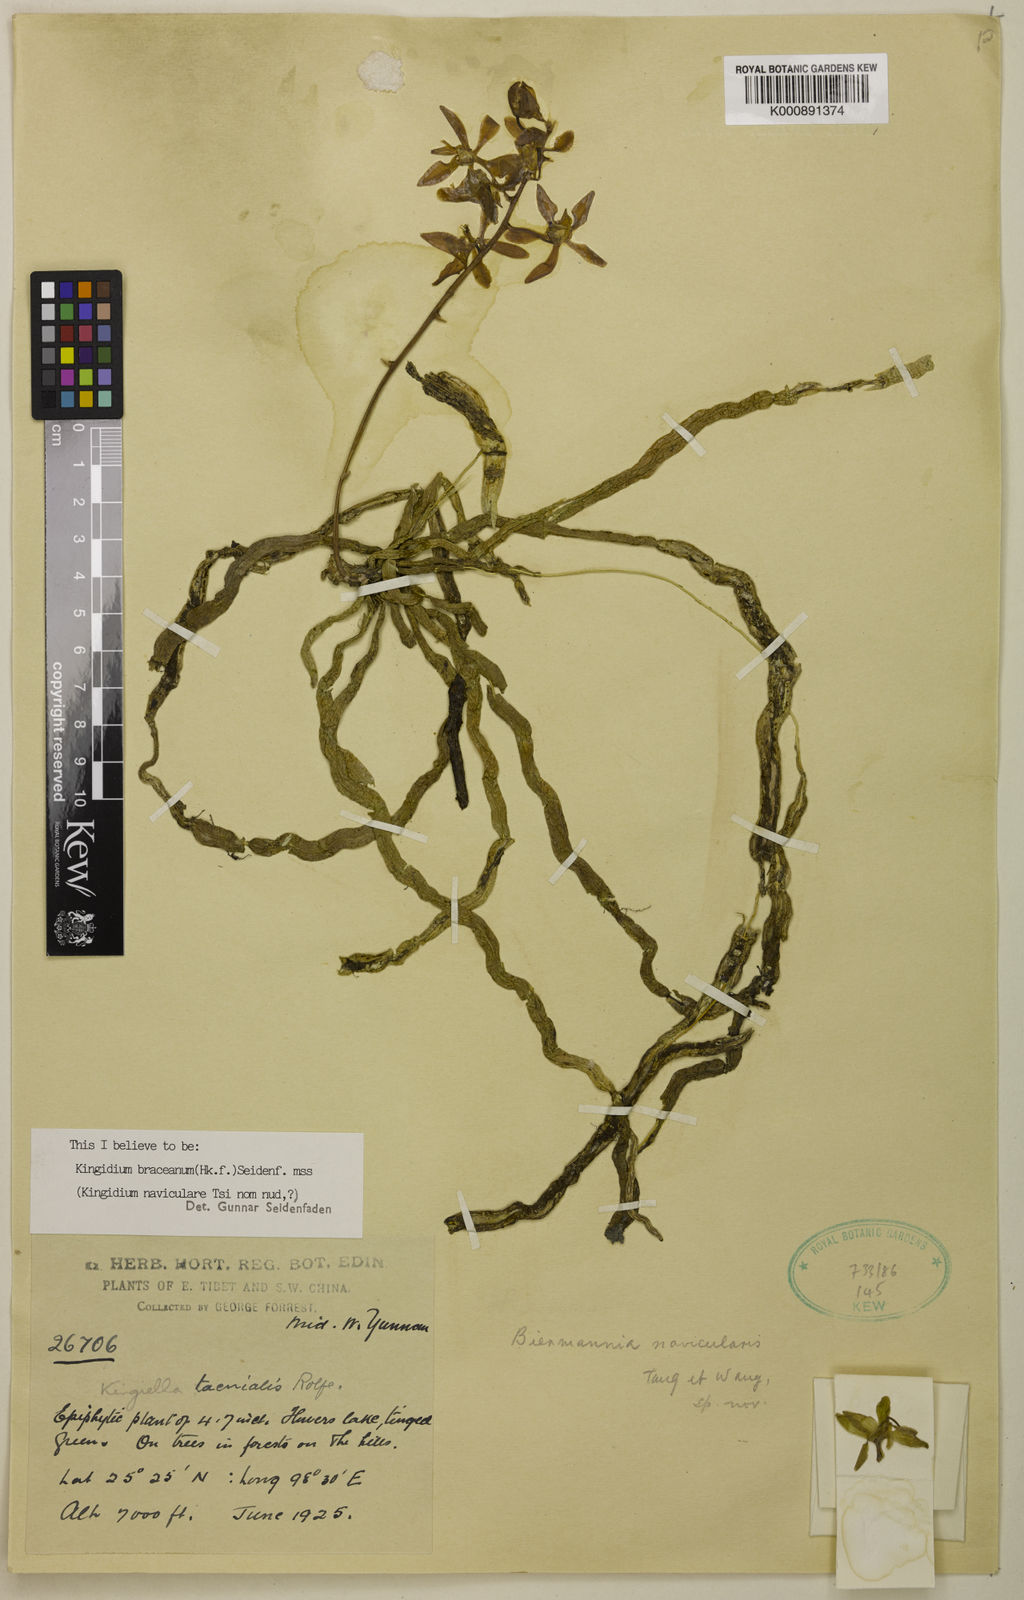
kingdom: Plantae
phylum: Tracheophyta
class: Liliopsida
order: Asparagales
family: Orchidaceae
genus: Phalaenopsis
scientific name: Phalaenopsis taenialis
